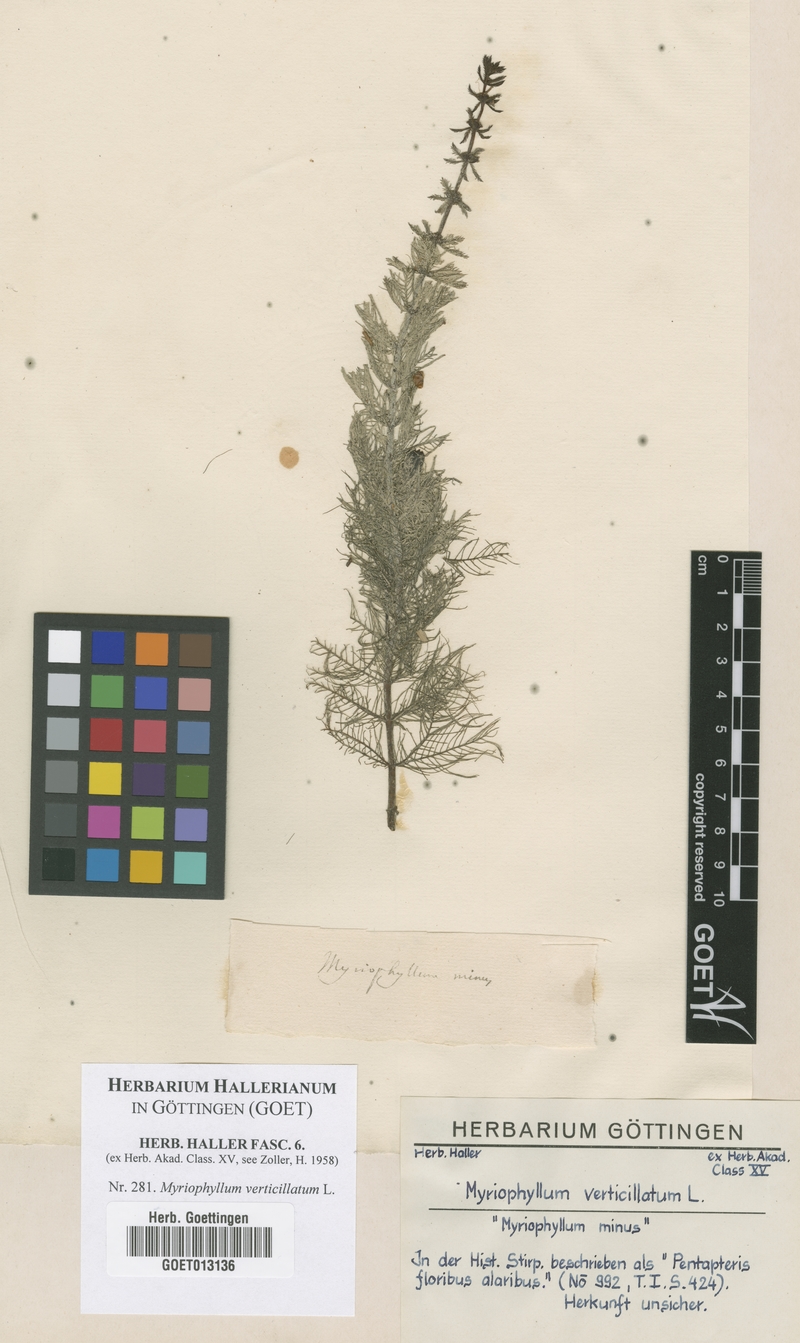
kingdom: Plantae
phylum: Tracheophyta
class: Magnoliopsida
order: Saxifragales
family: Haloragaceae
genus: Myriophyllum
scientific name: Myriophyllum verticillatum
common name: Whorled water-milfoil
